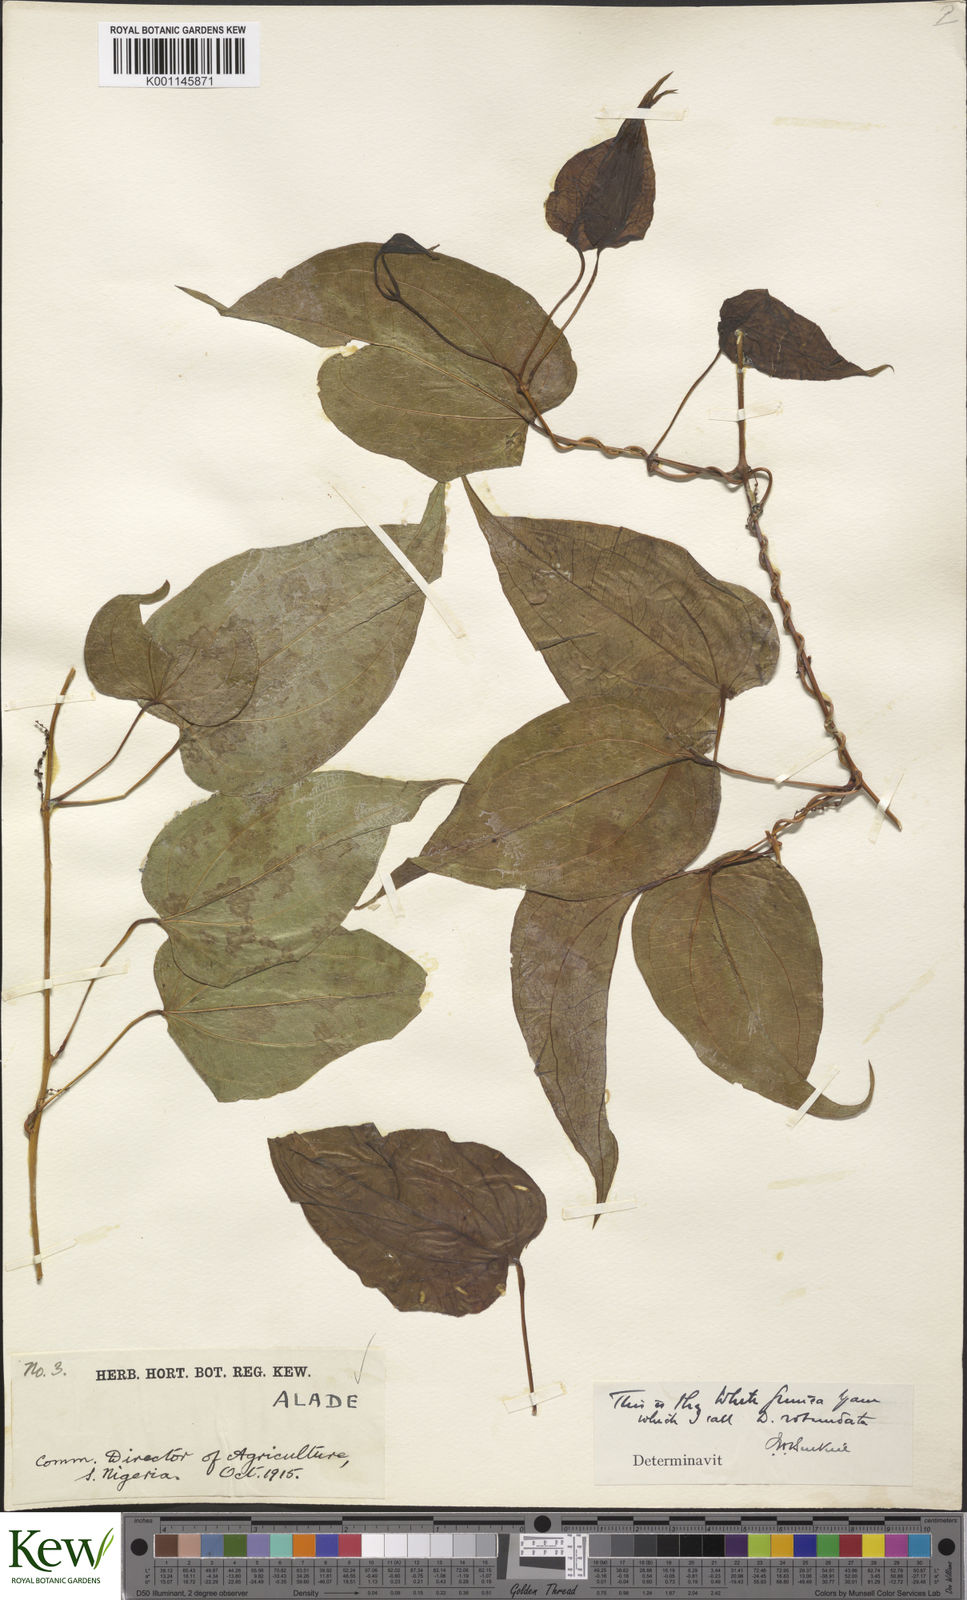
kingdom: Plantae
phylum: Tracheophyta
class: Liliopsida
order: Dioscoreales
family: Dioscoreaceae
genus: Dioscorea
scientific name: Dioscorea cayenensis
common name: Attoto yam
